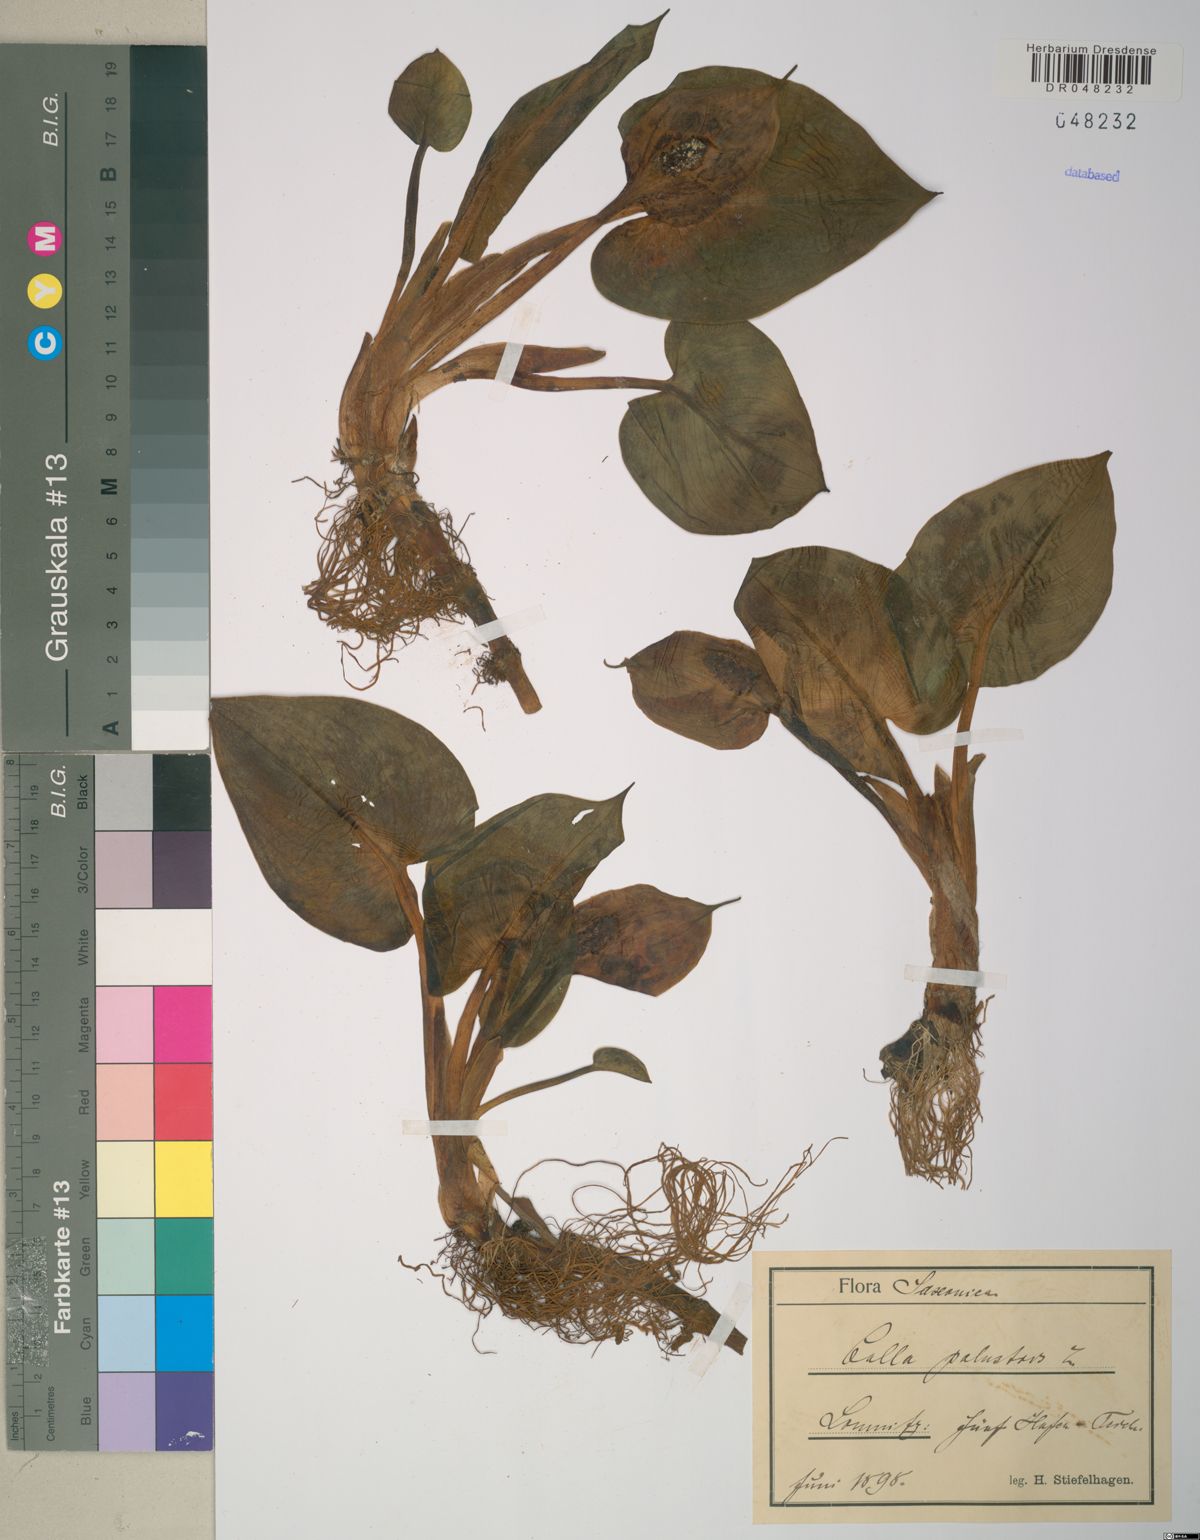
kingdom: Plantae
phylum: Tracheophyta
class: Liliopsida
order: Alismatales
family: Araceae
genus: Calla
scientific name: Calla palustris
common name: Bog arum
